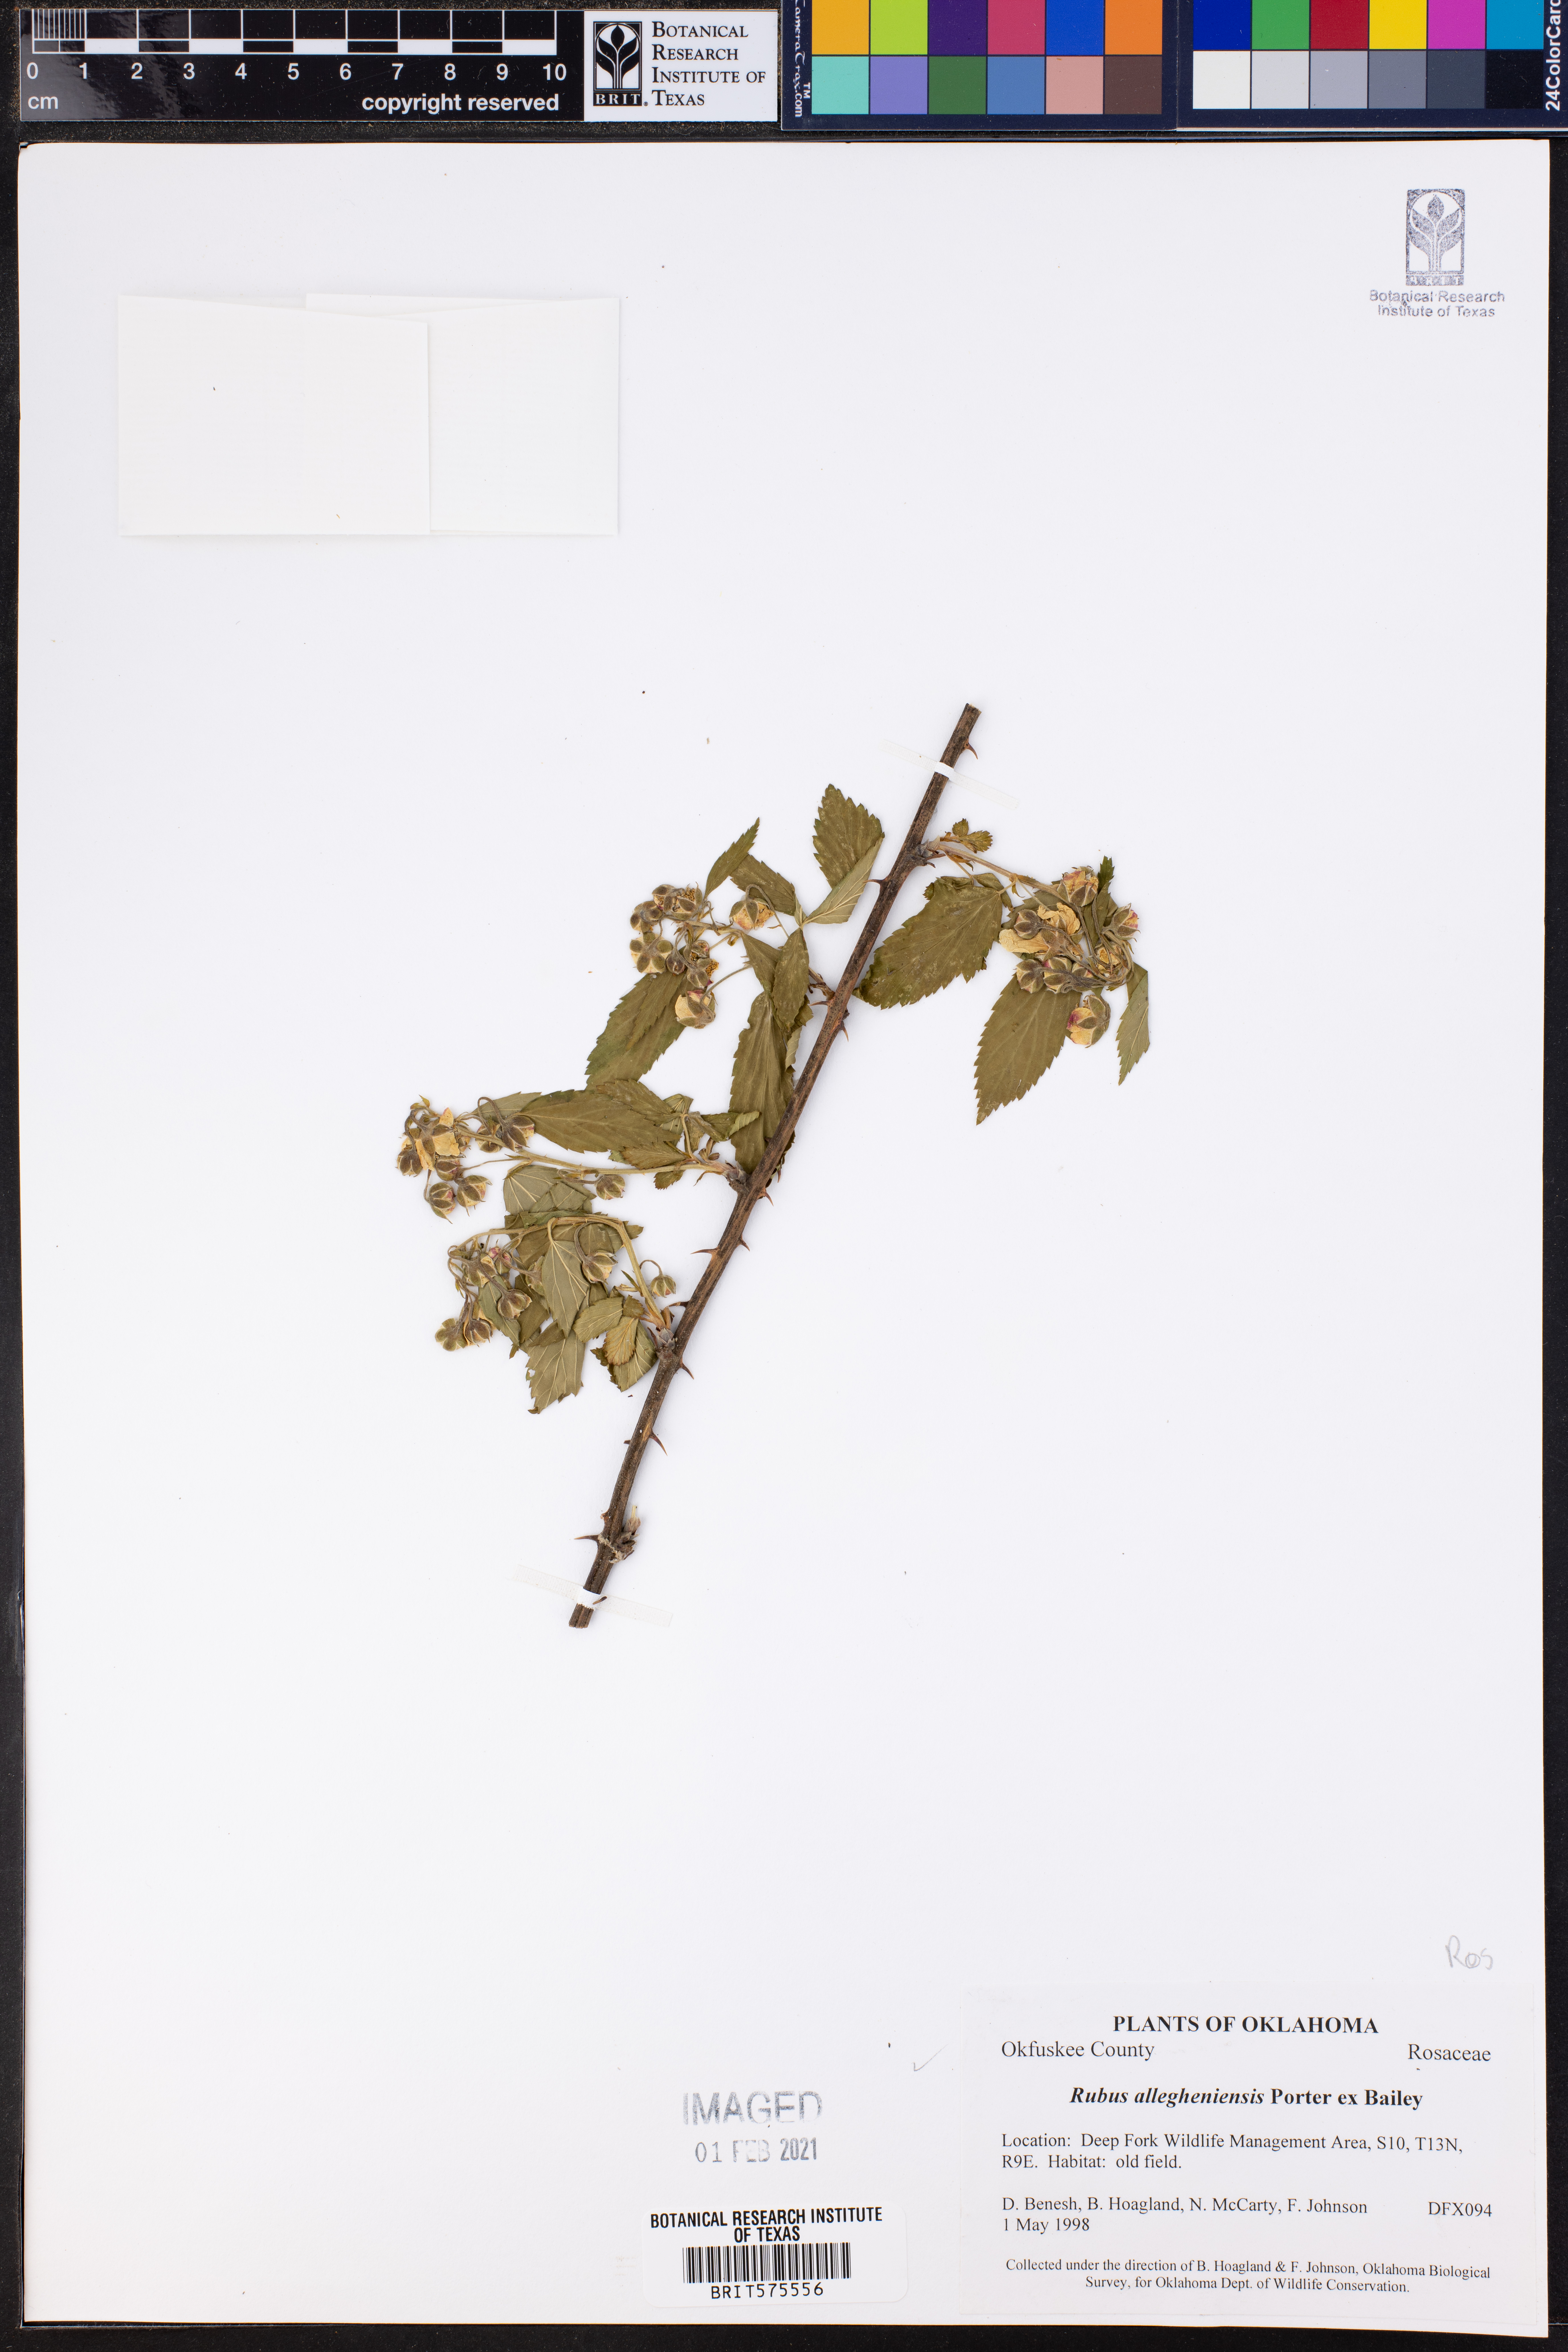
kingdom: Plantae
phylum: Tracheophyta
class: Magnoliopsida
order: Rosales
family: Rosaceae
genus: Rubus
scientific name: Rubus allegheniensis
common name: Allegheny blackberry
